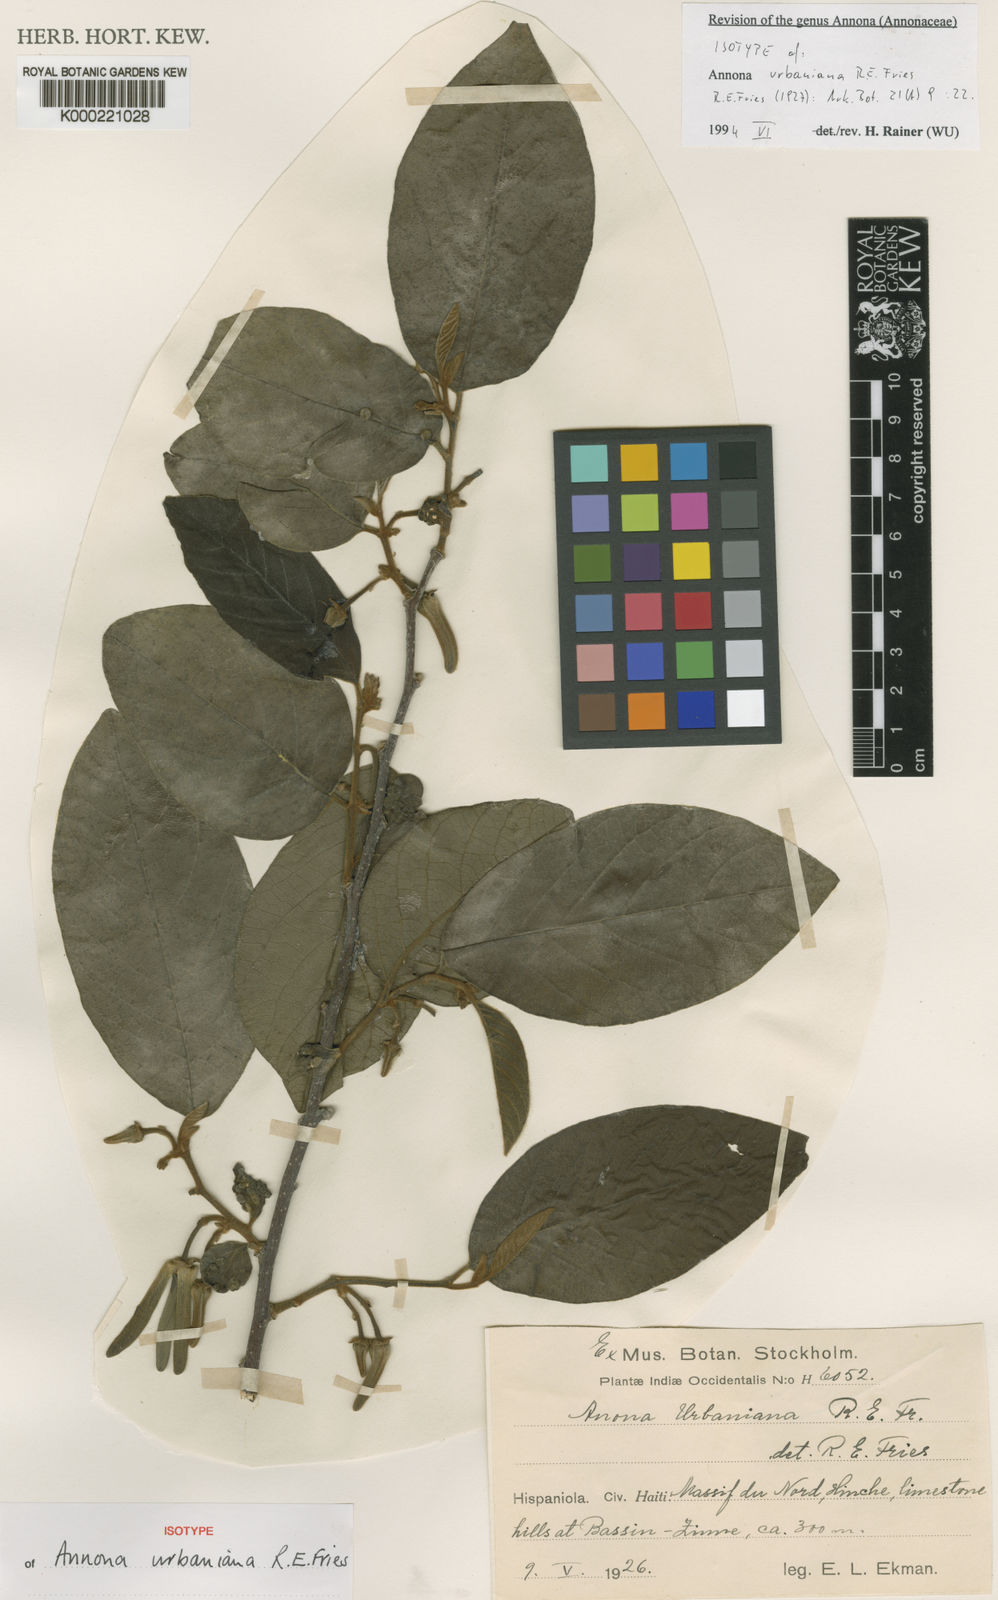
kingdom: Plantae
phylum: Tracheophyta
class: Magnoliopsida
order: Magnoliales
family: Annonaceae
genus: Annona
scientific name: Annona urbaniana
